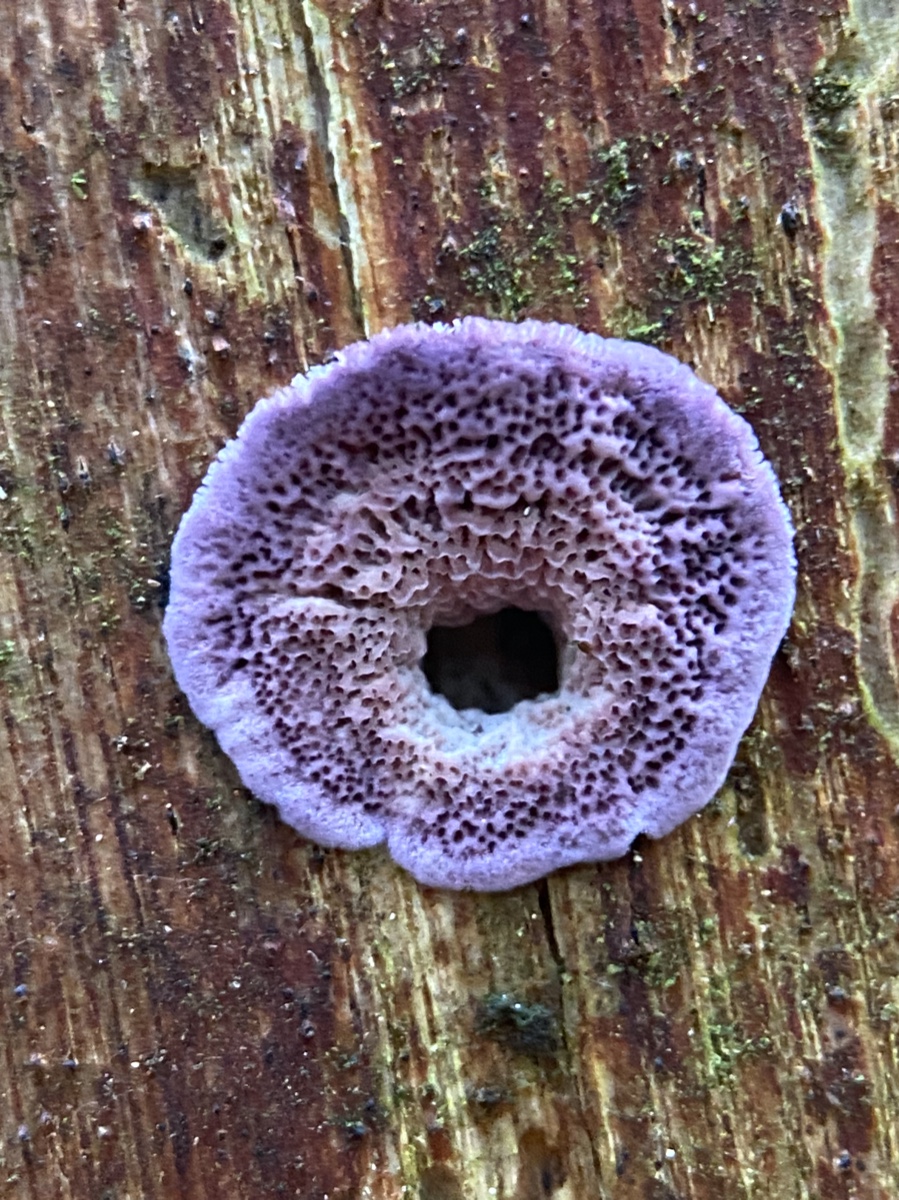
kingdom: Fungi
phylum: Basidiomycota
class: Agaricomycetes
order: Hymenochaetales
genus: Trichaptum
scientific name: Trichaptum abietinum
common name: almindelig violporesvamp
